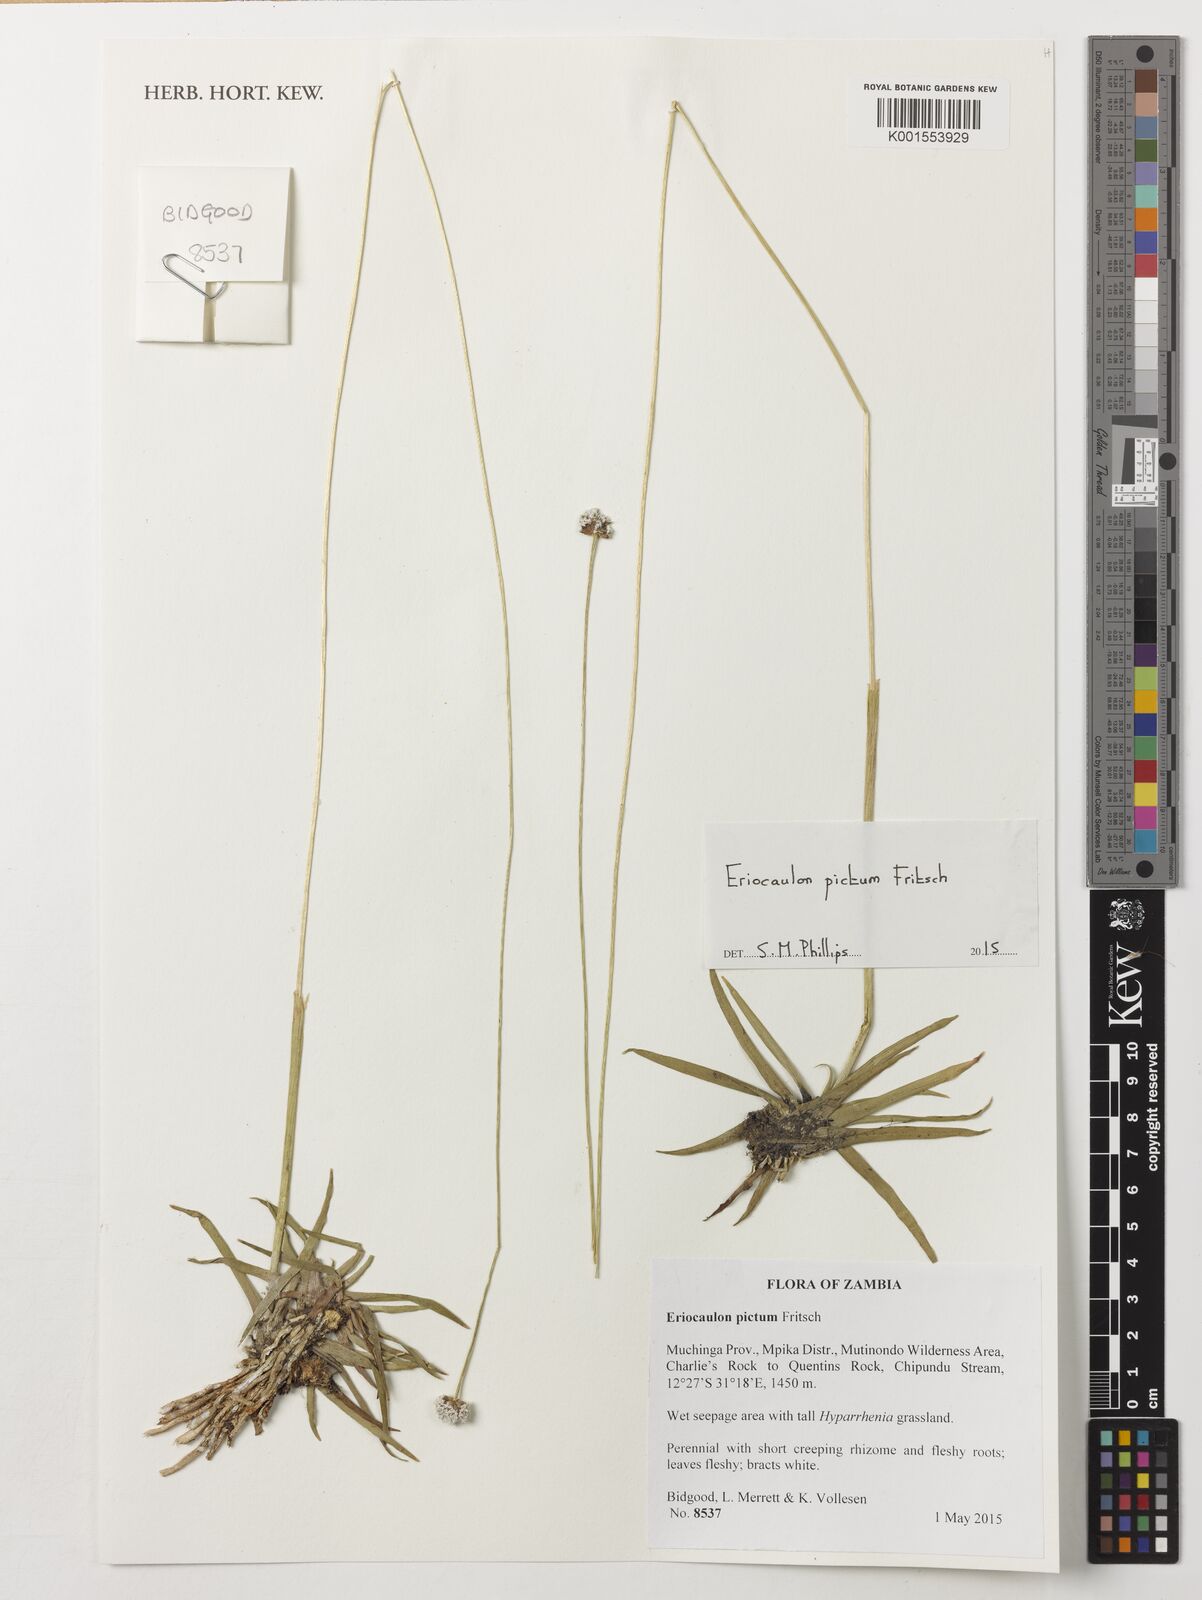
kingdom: Plantae
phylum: Tracheophyta
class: Liliopsida
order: Poales
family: Eriocaulaceae
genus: Eriocaulon
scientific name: Eriocaulon pictum
